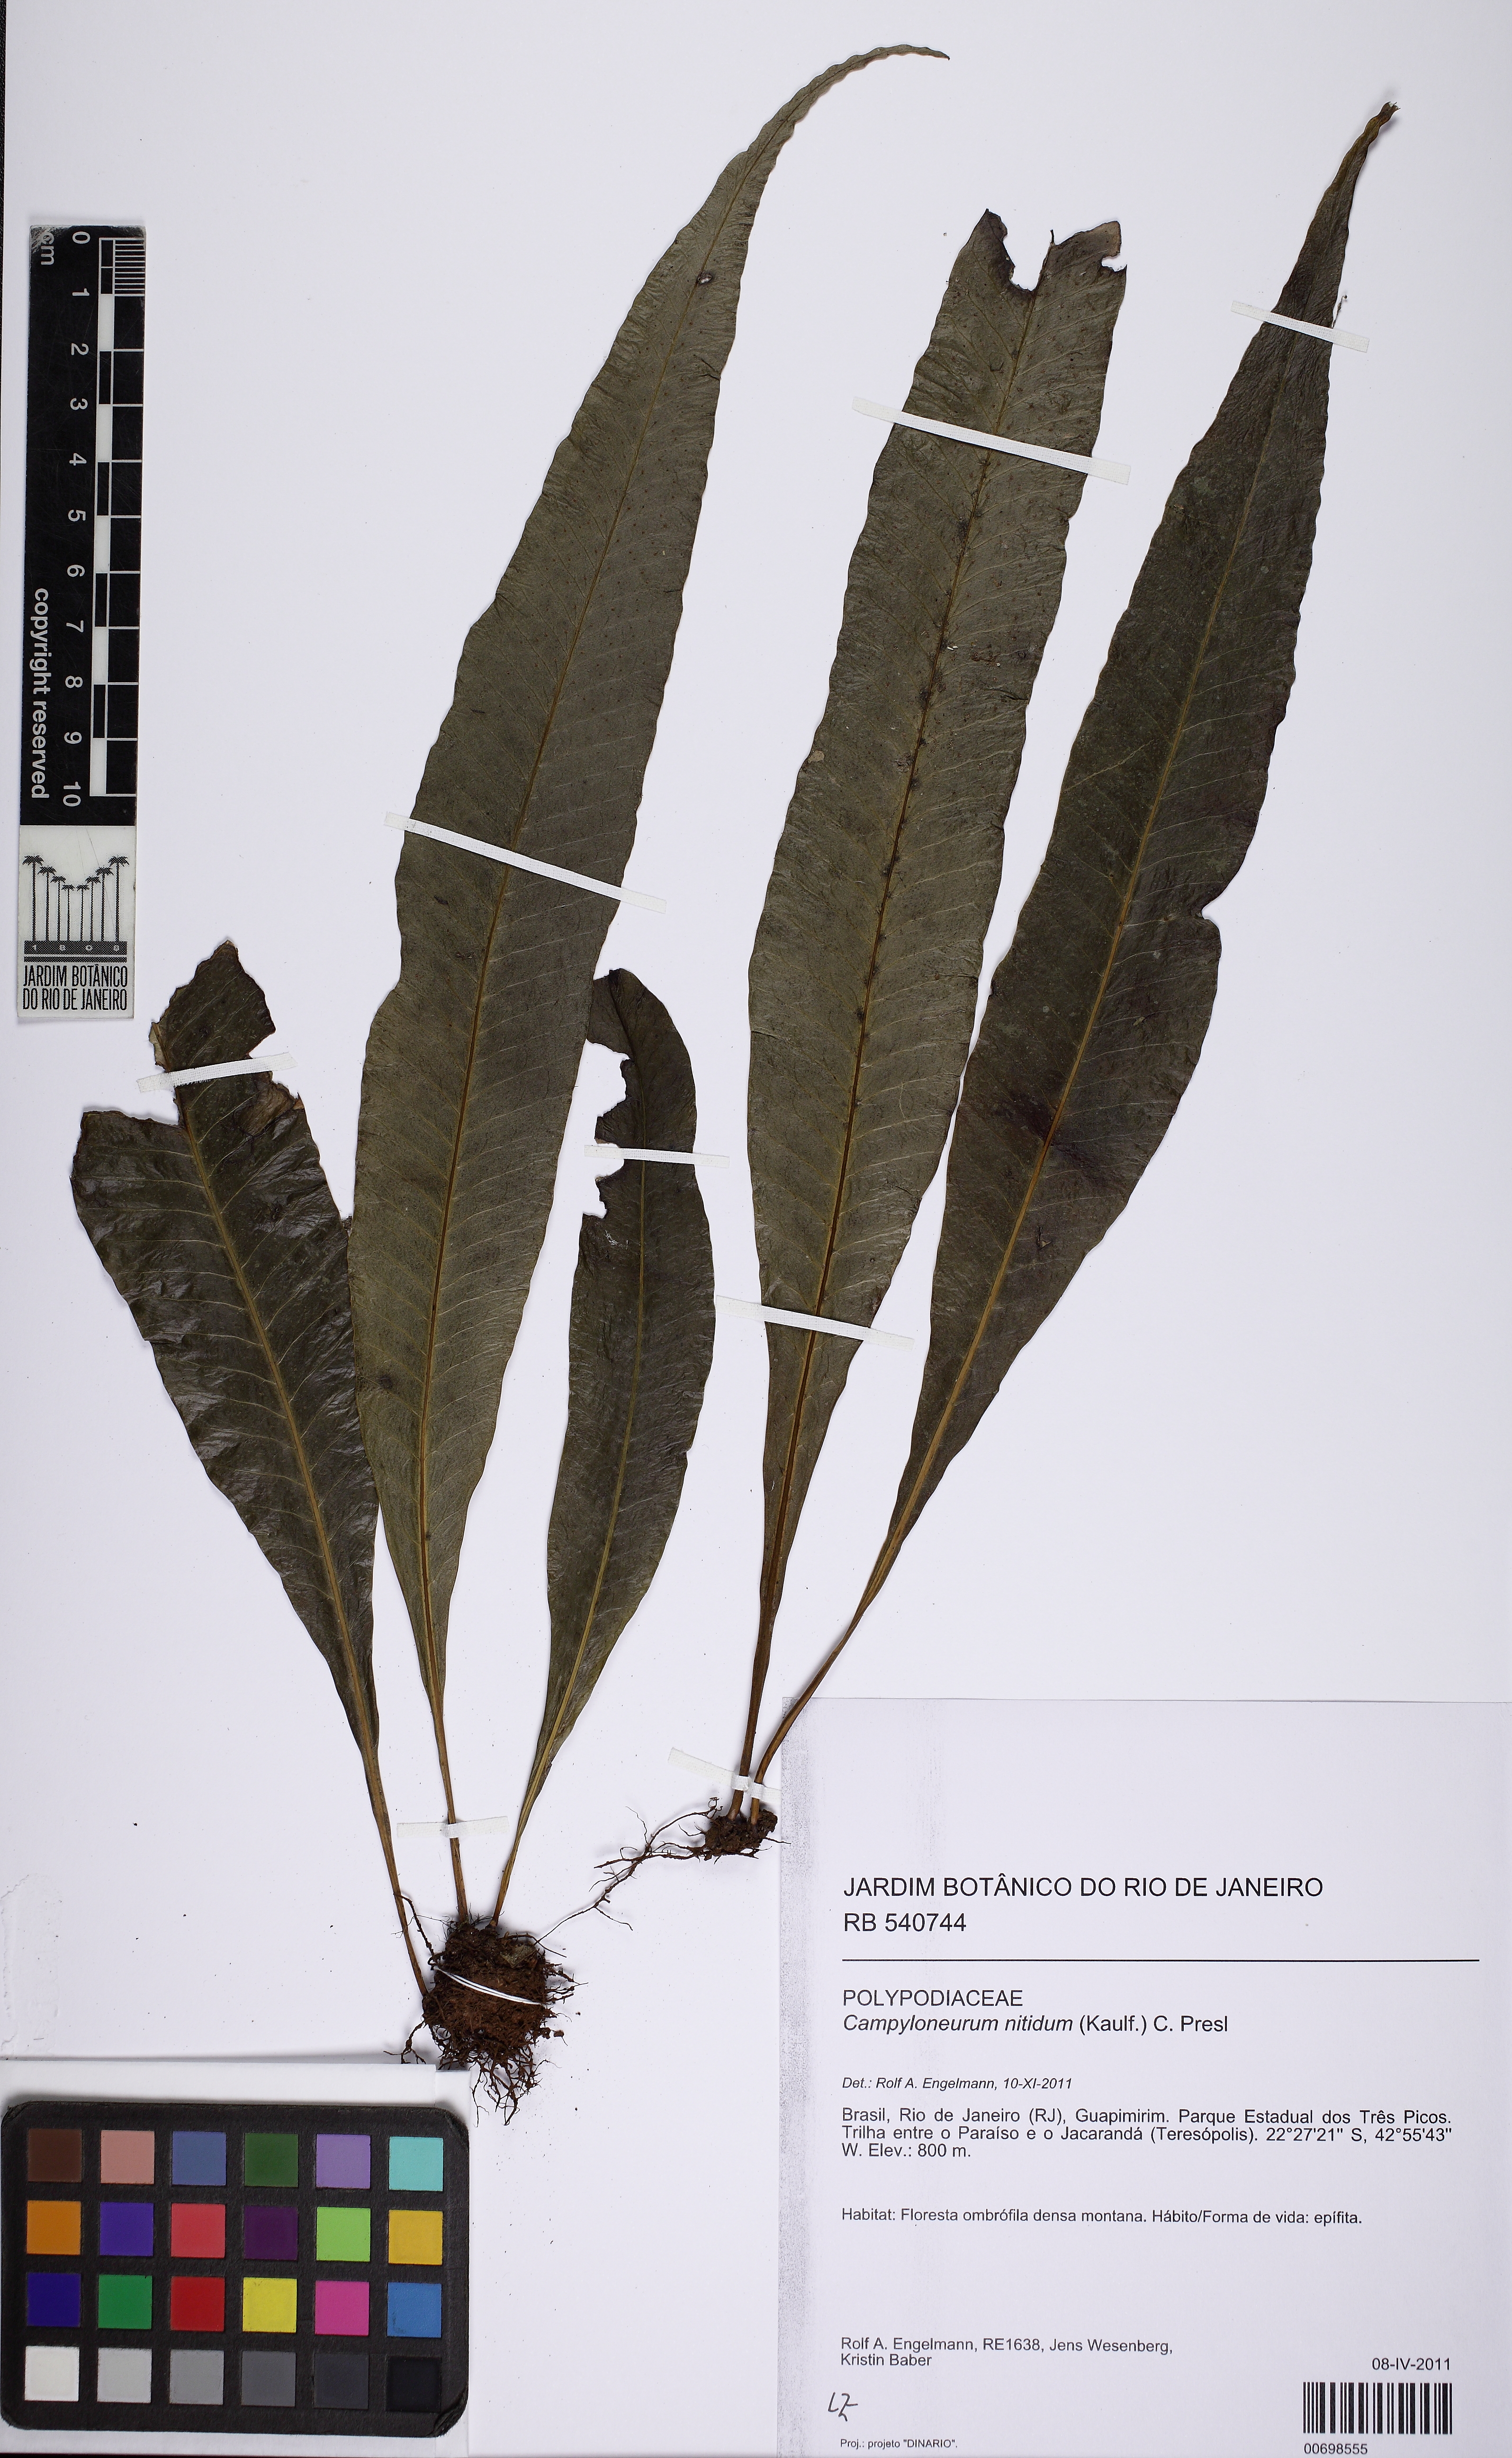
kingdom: Plantae
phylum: Tracheophyta
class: Polypodiopsida
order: Polypodiales
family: Polypodiaceae
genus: Campyloneurum
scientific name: Campyloneurum nitidum
